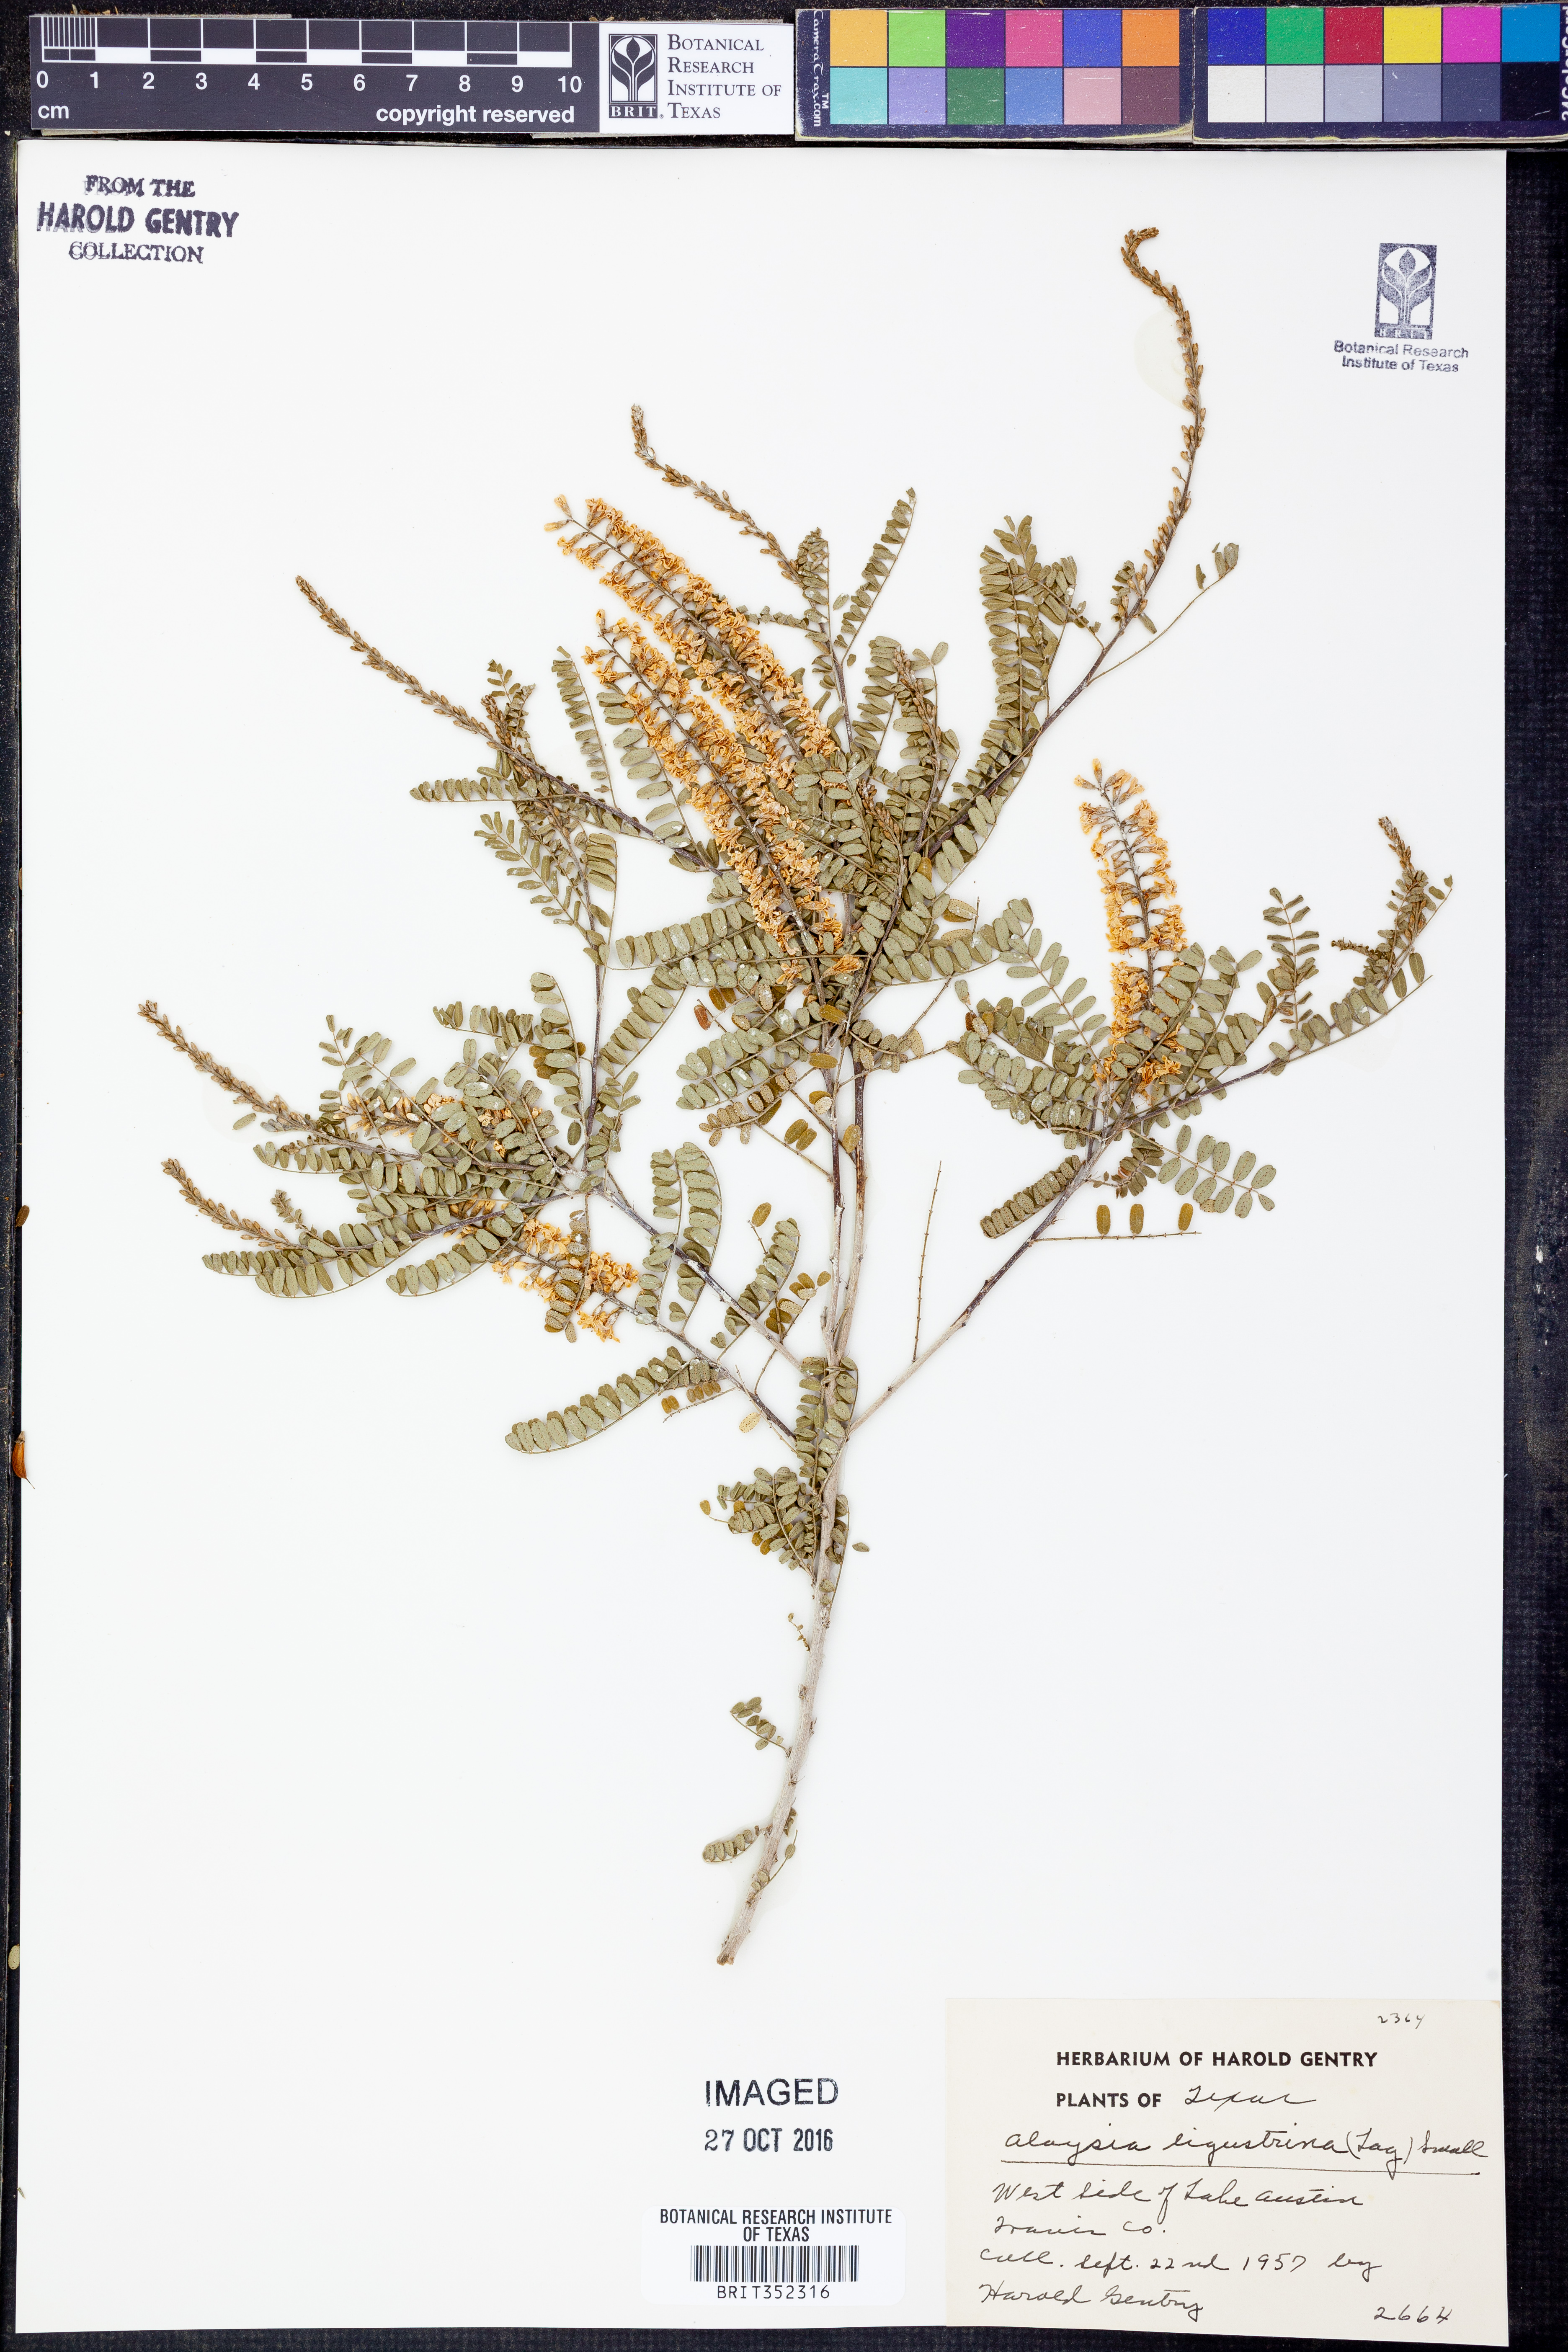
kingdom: Plantae
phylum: Tracheophyta
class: Magnoliopsida
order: Lamiales
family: Verbenaceae
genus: Mulguraea
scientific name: Mulguraea ligustrina
